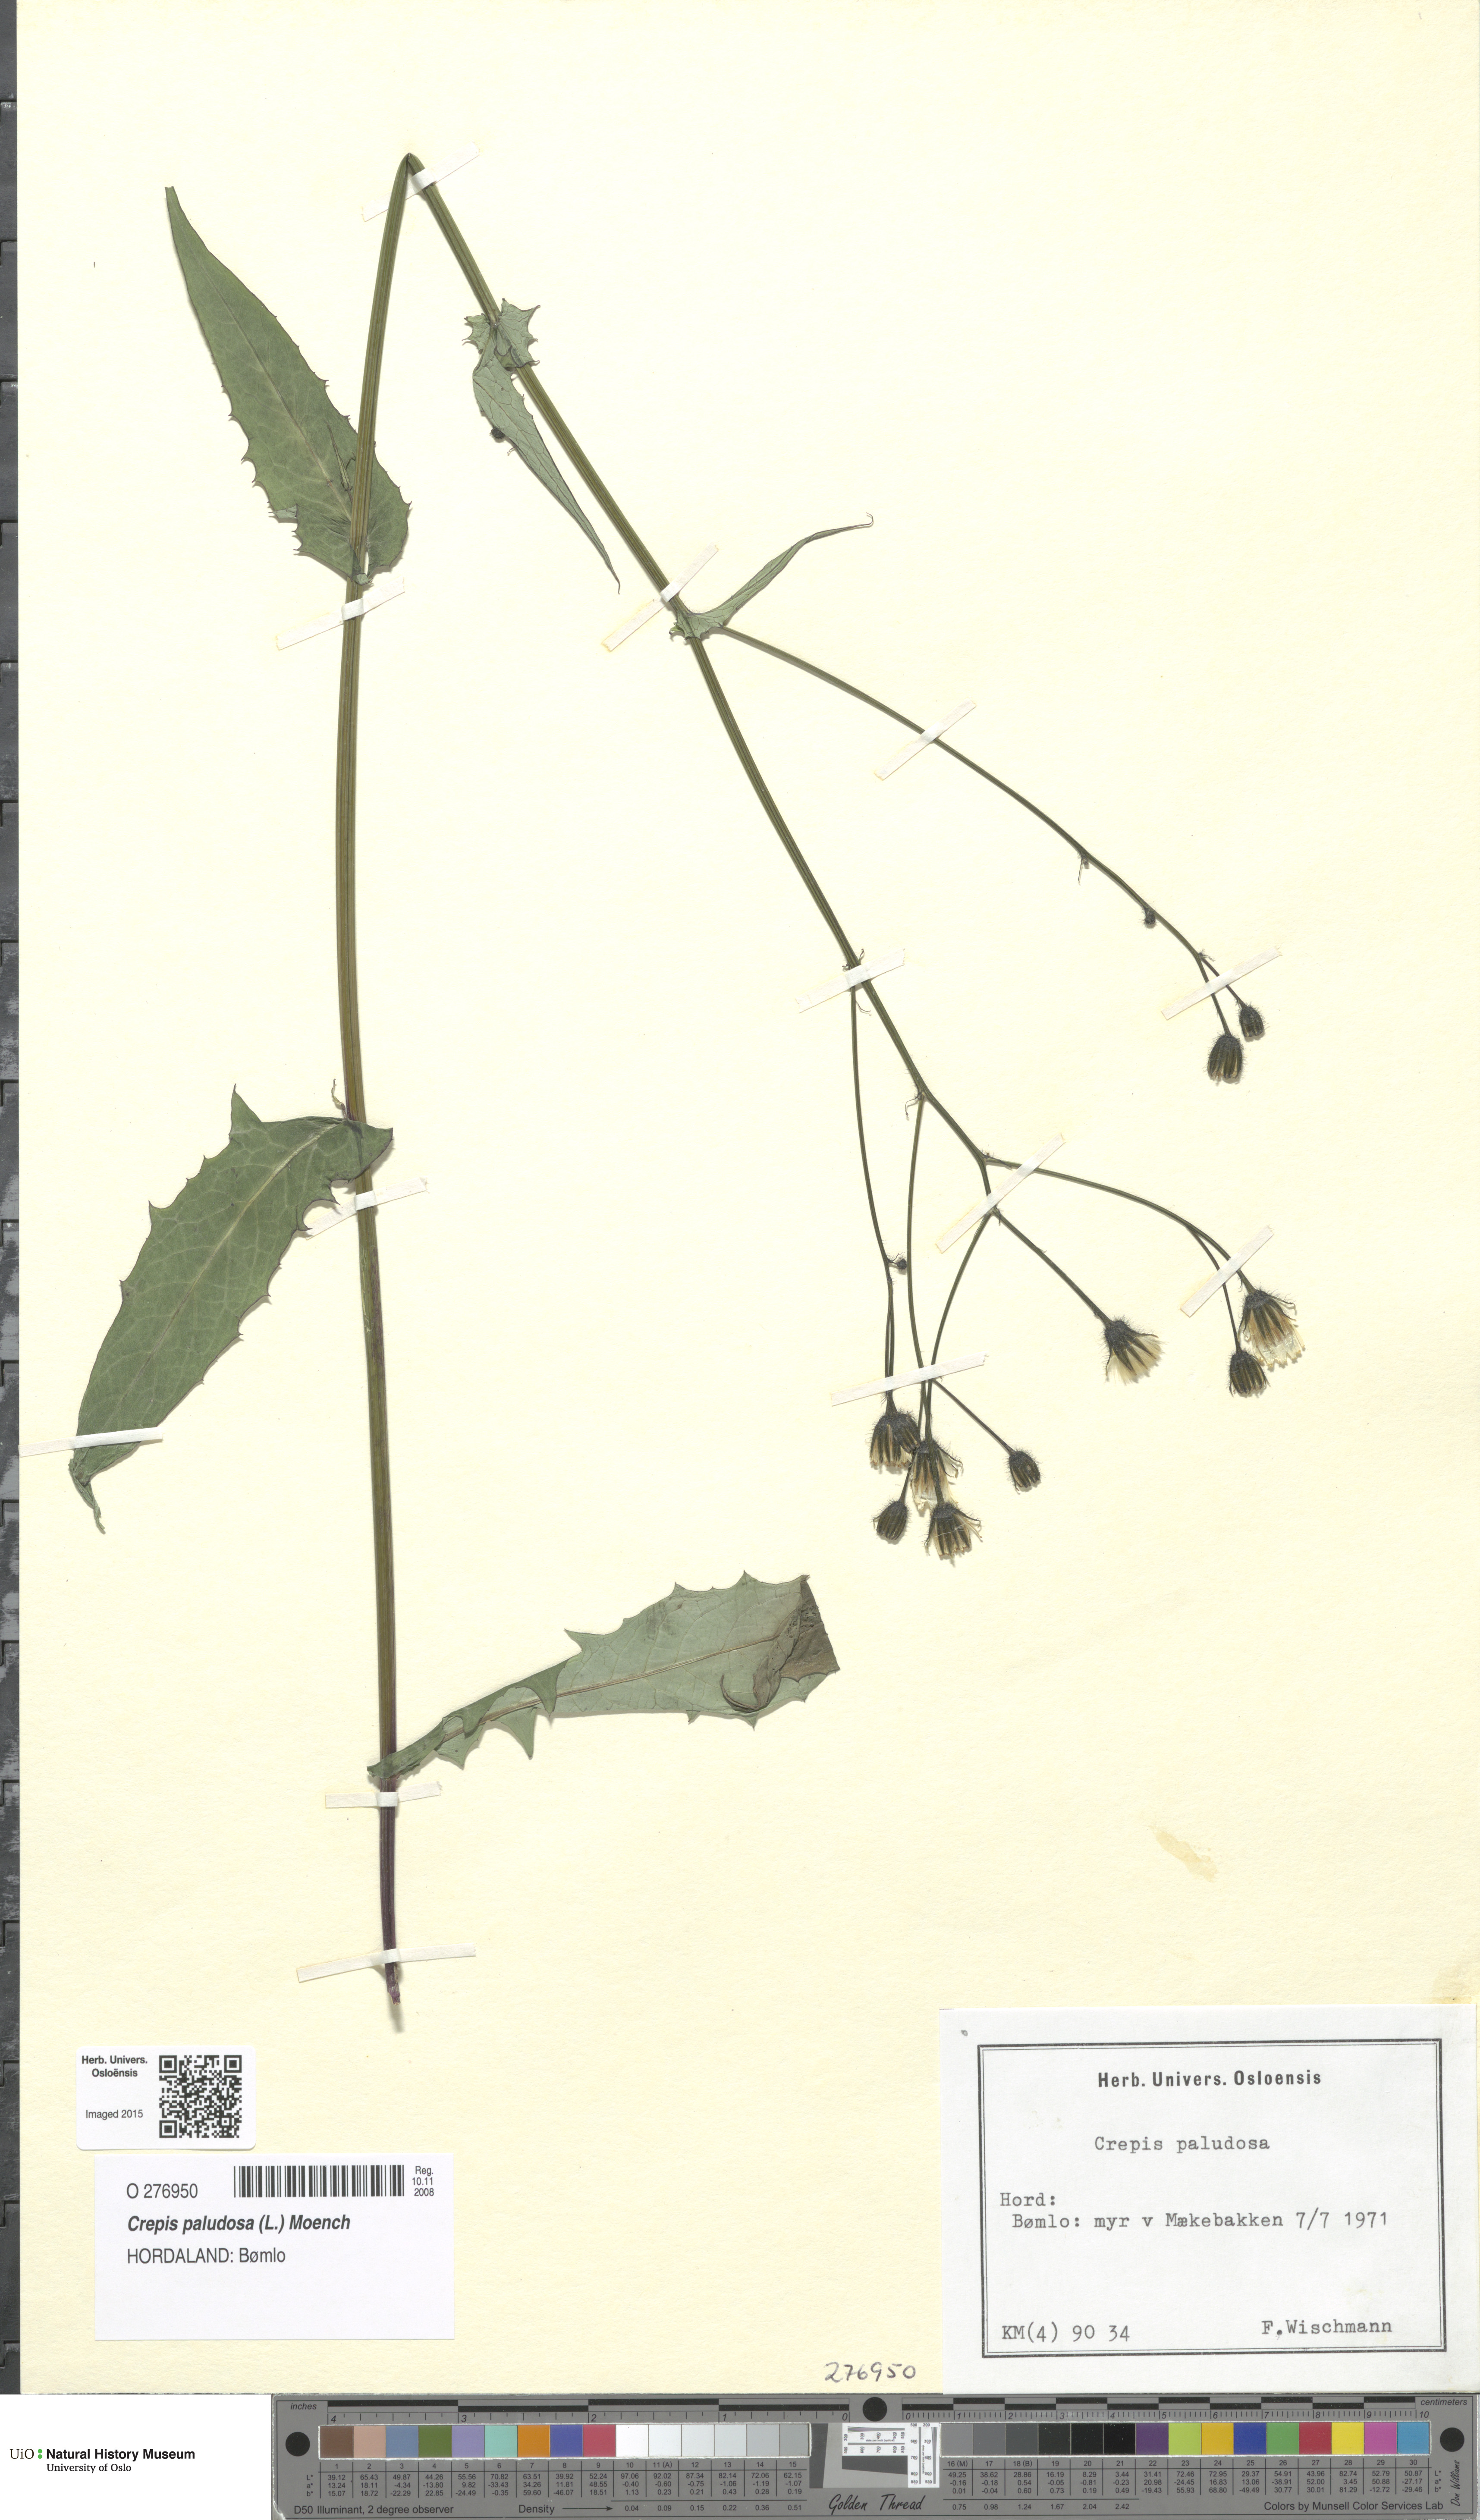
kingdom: Plantae
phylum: Tracheophyta
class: Magnoliopsida
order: Asterales
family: Asteraceae
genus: Crepis
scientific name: Crepis paludosa
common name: Marsh hawk's-beard
